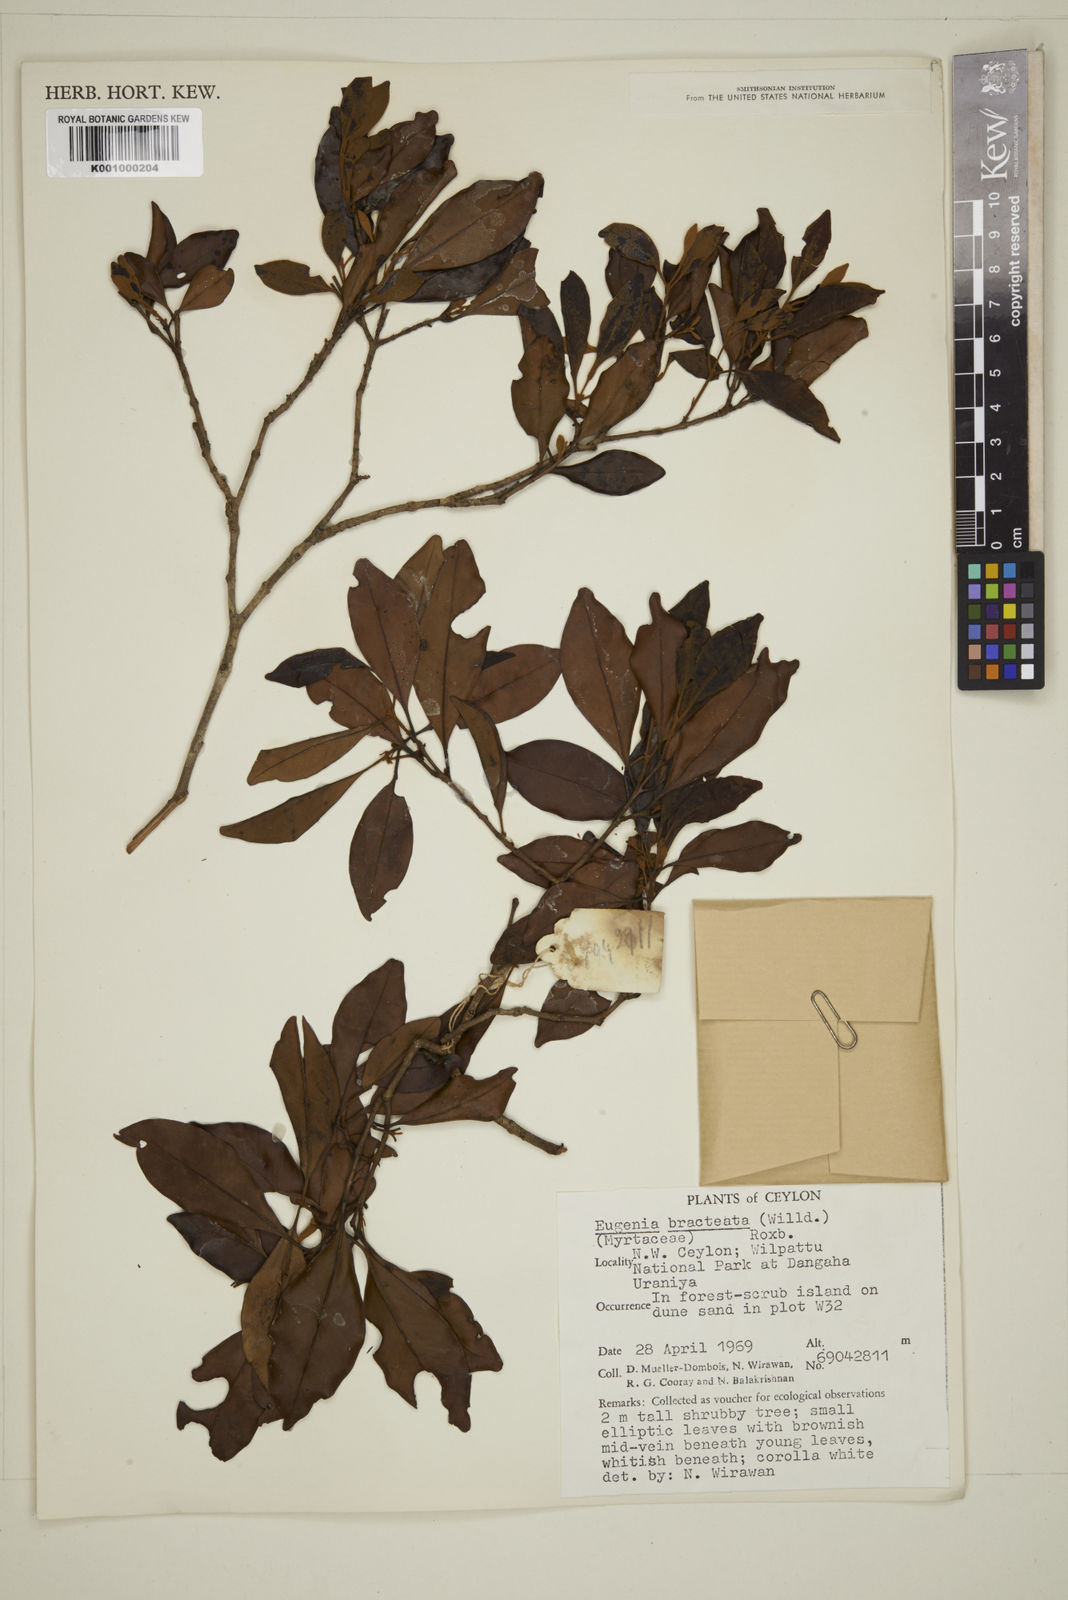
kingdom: Plantae
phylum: Tracheophyta
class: Magnoliopsida
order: Myrtales
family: Myrtaceae
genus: Eugenia
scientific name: Eugenia pseudopsidium
